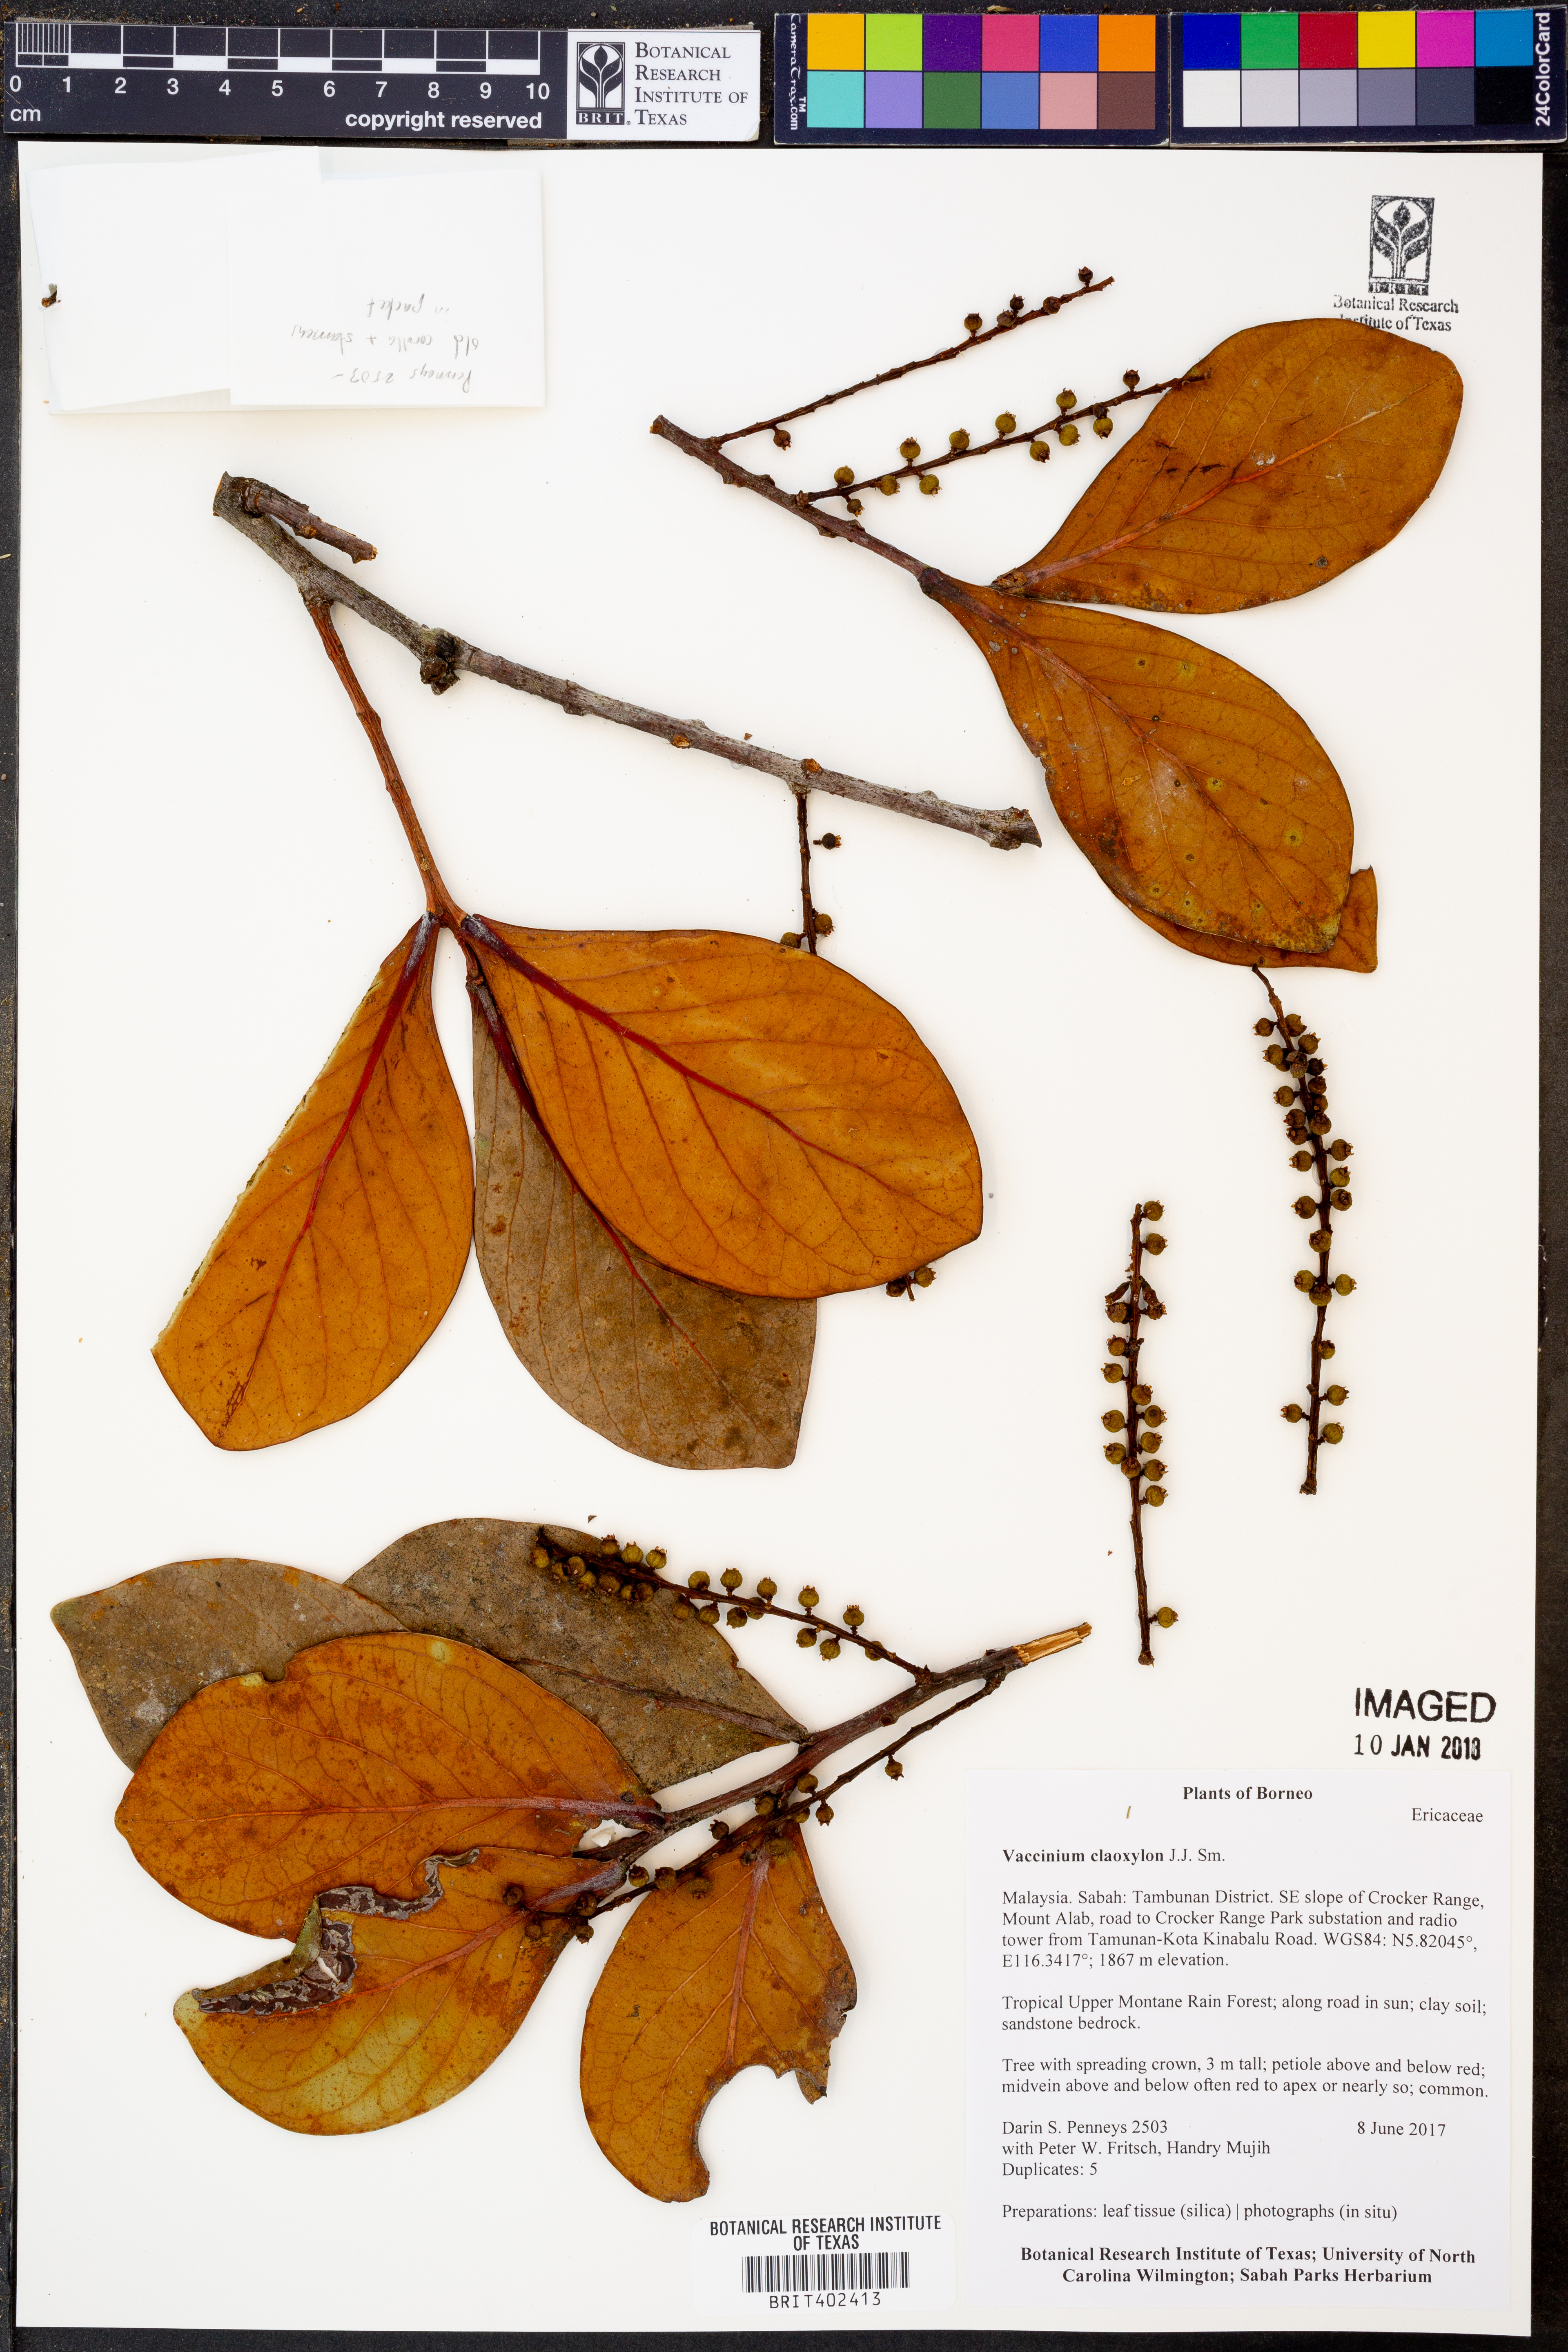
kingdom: Plantae
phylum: Tracheophyta
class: Magnoliopsida
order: Ericales
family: Ericaceae
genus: Vaccinium
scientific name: Vaccinium claoxylon
